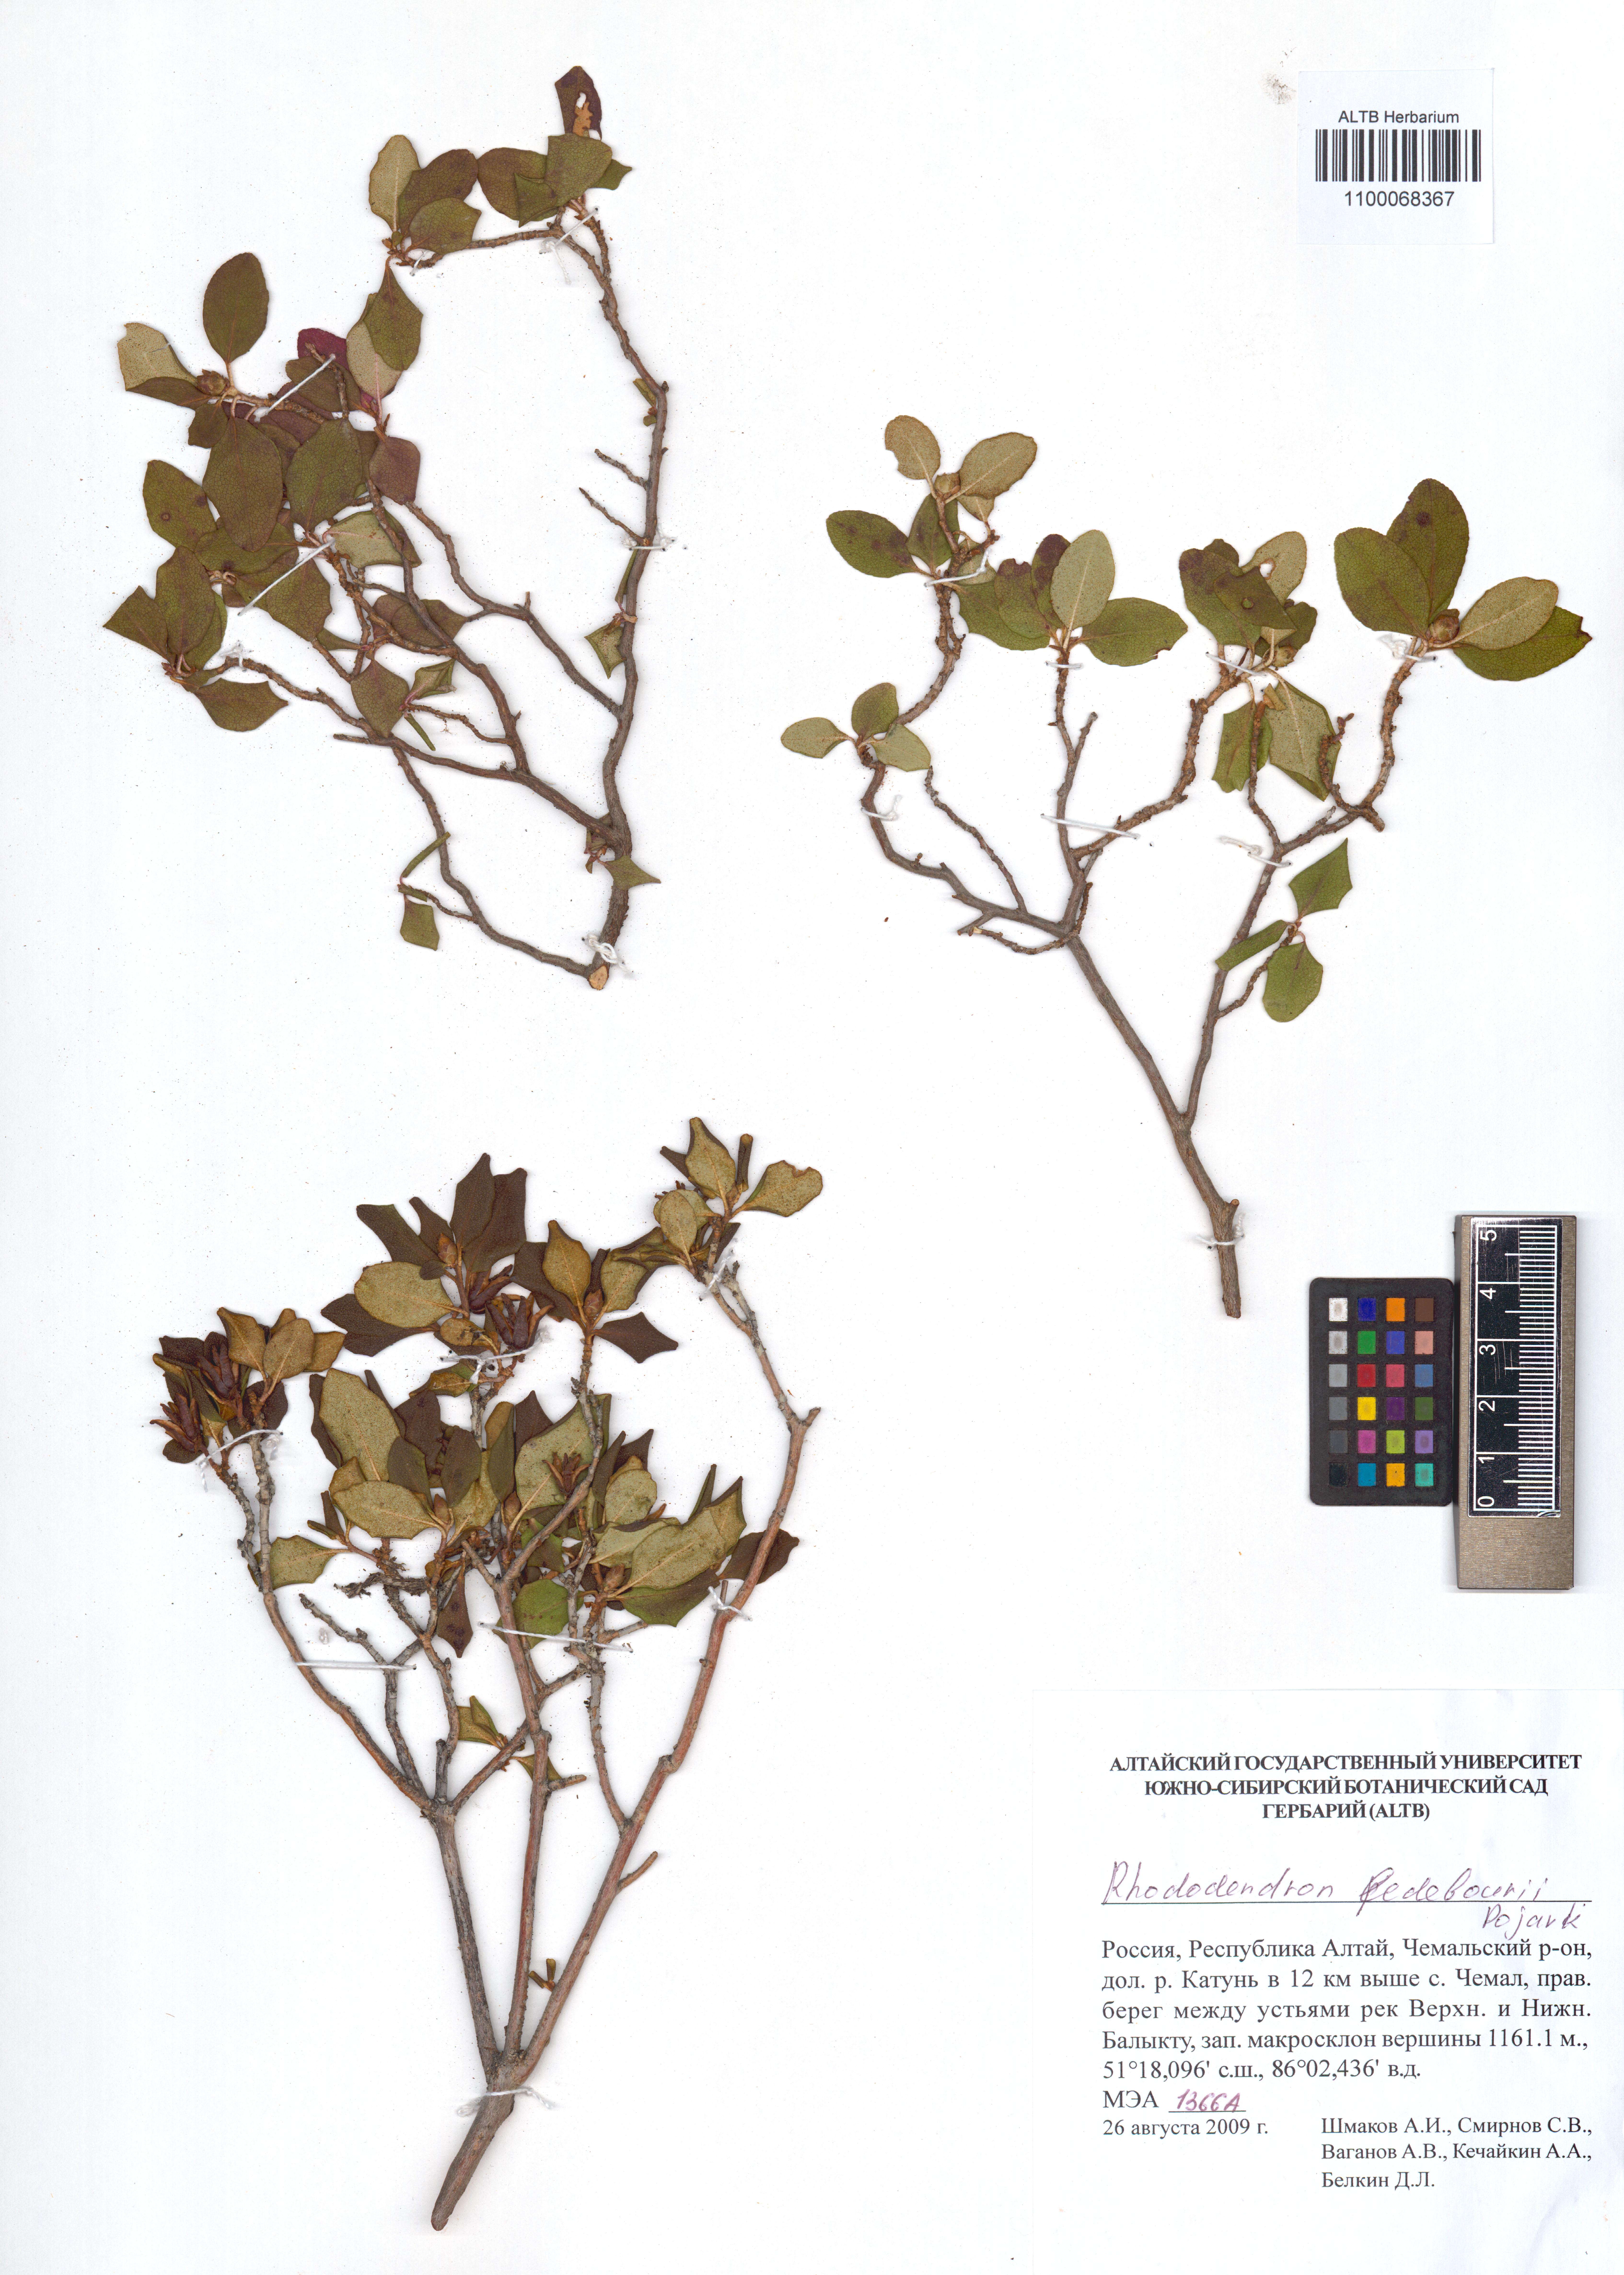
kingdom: Plantae
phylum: Tracheophyta
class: Magnoliopsida
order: Ericales
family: Ericaceae
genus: Rhododendron
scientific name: Rhododendron dauricum
